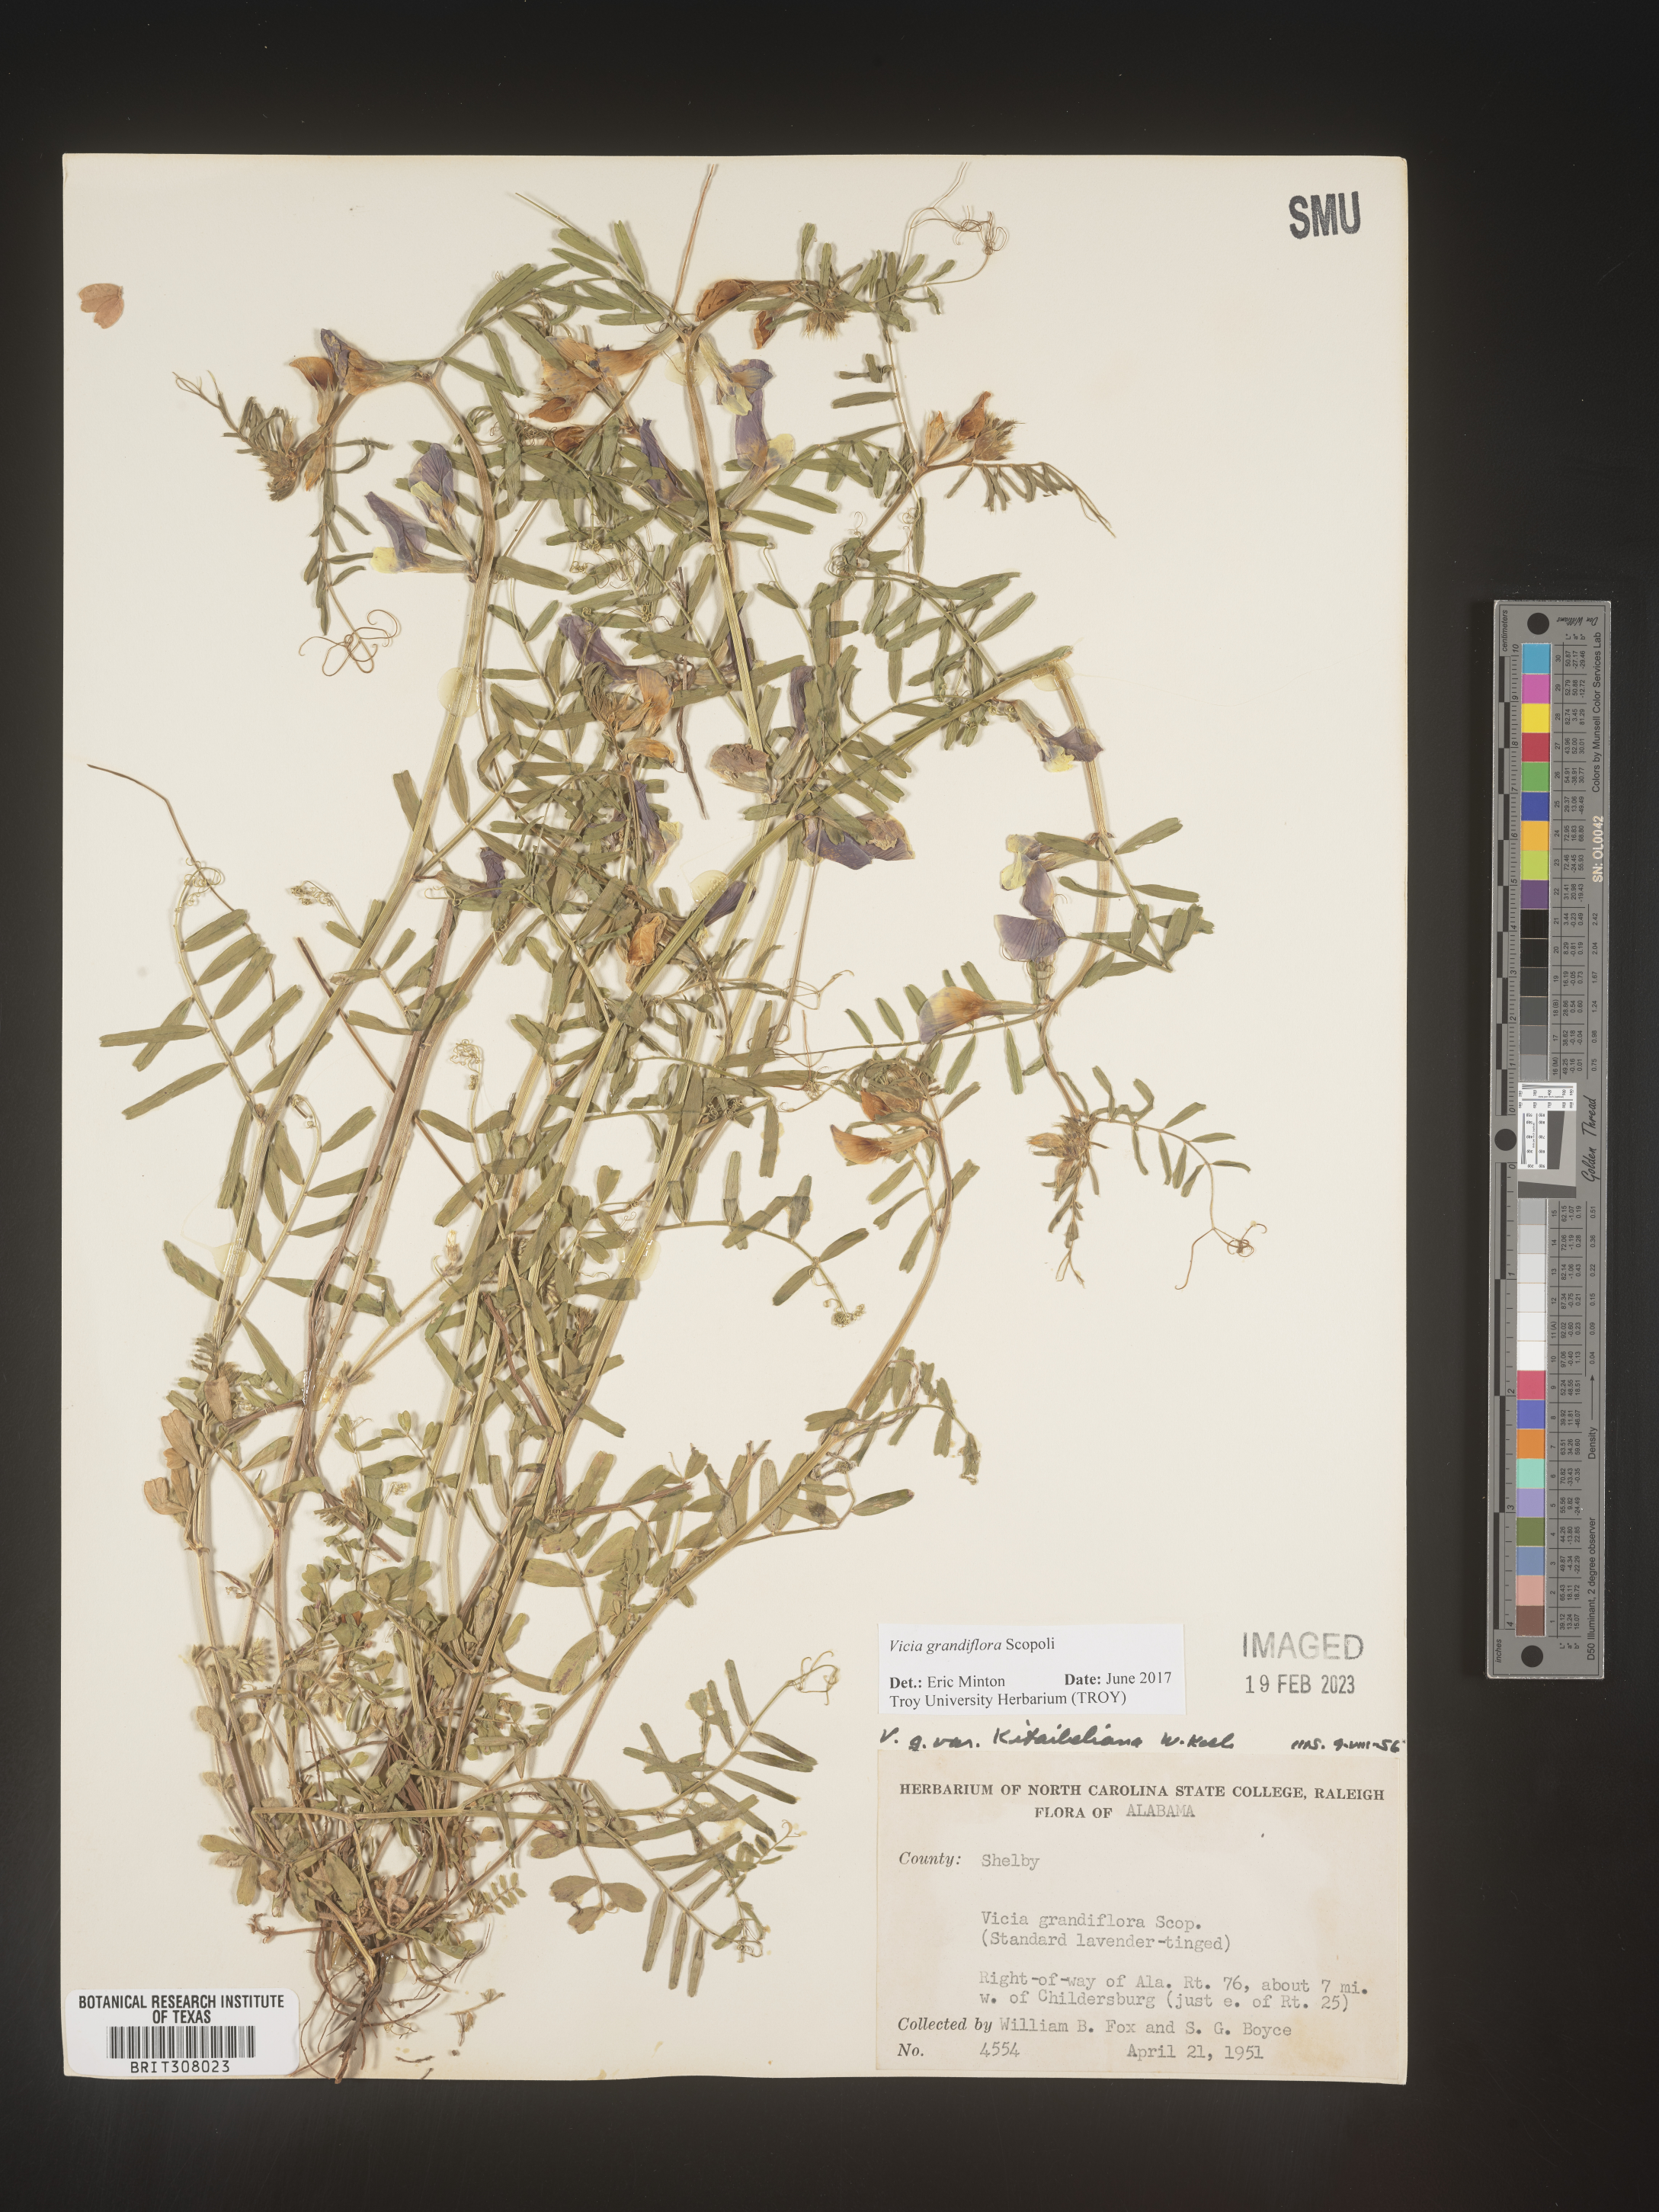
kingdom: Plantae
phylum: Tracheophyta
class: Magnoliopsida
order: Fabales
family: Fabaceae
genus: Vicia
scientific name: Vicia grandiflora
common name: Large yellow vetch
